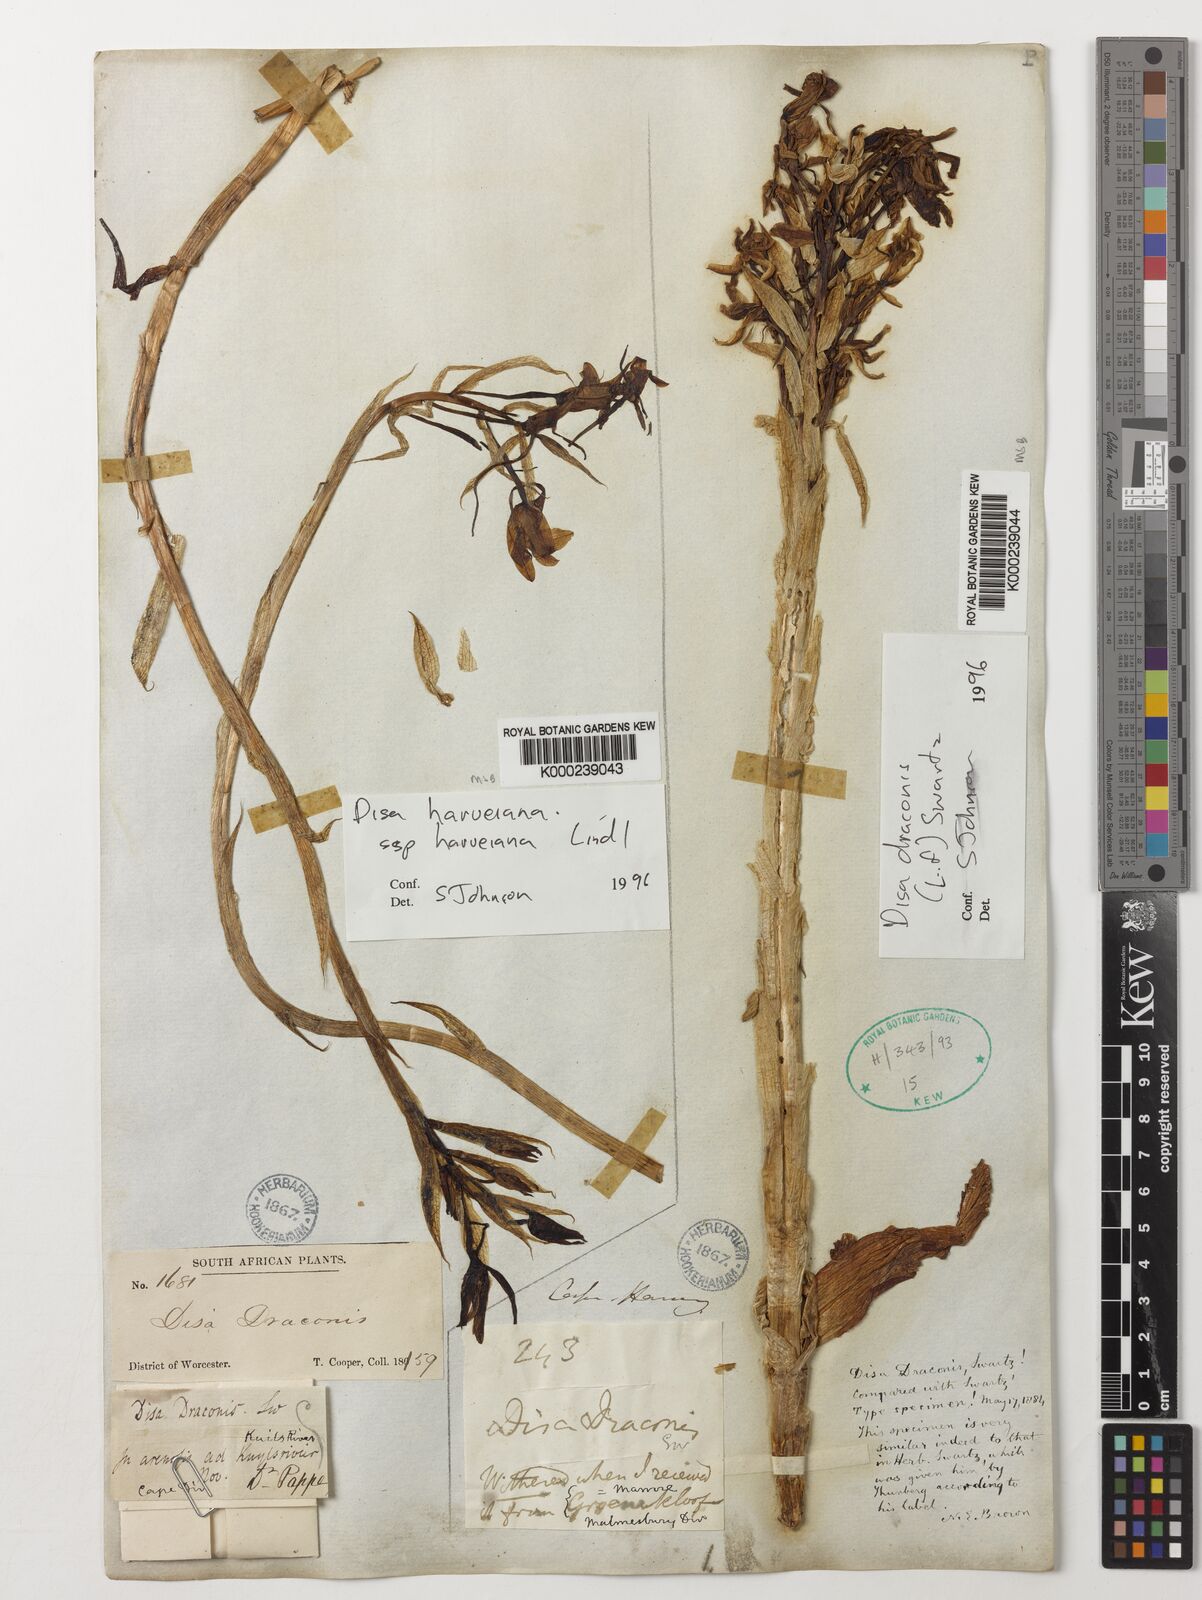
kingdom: Plantae
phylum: Tracheophyta
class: Liliopsida
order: Asparagales
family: Orchidaceae
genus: Disa
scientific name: Disa draconis
